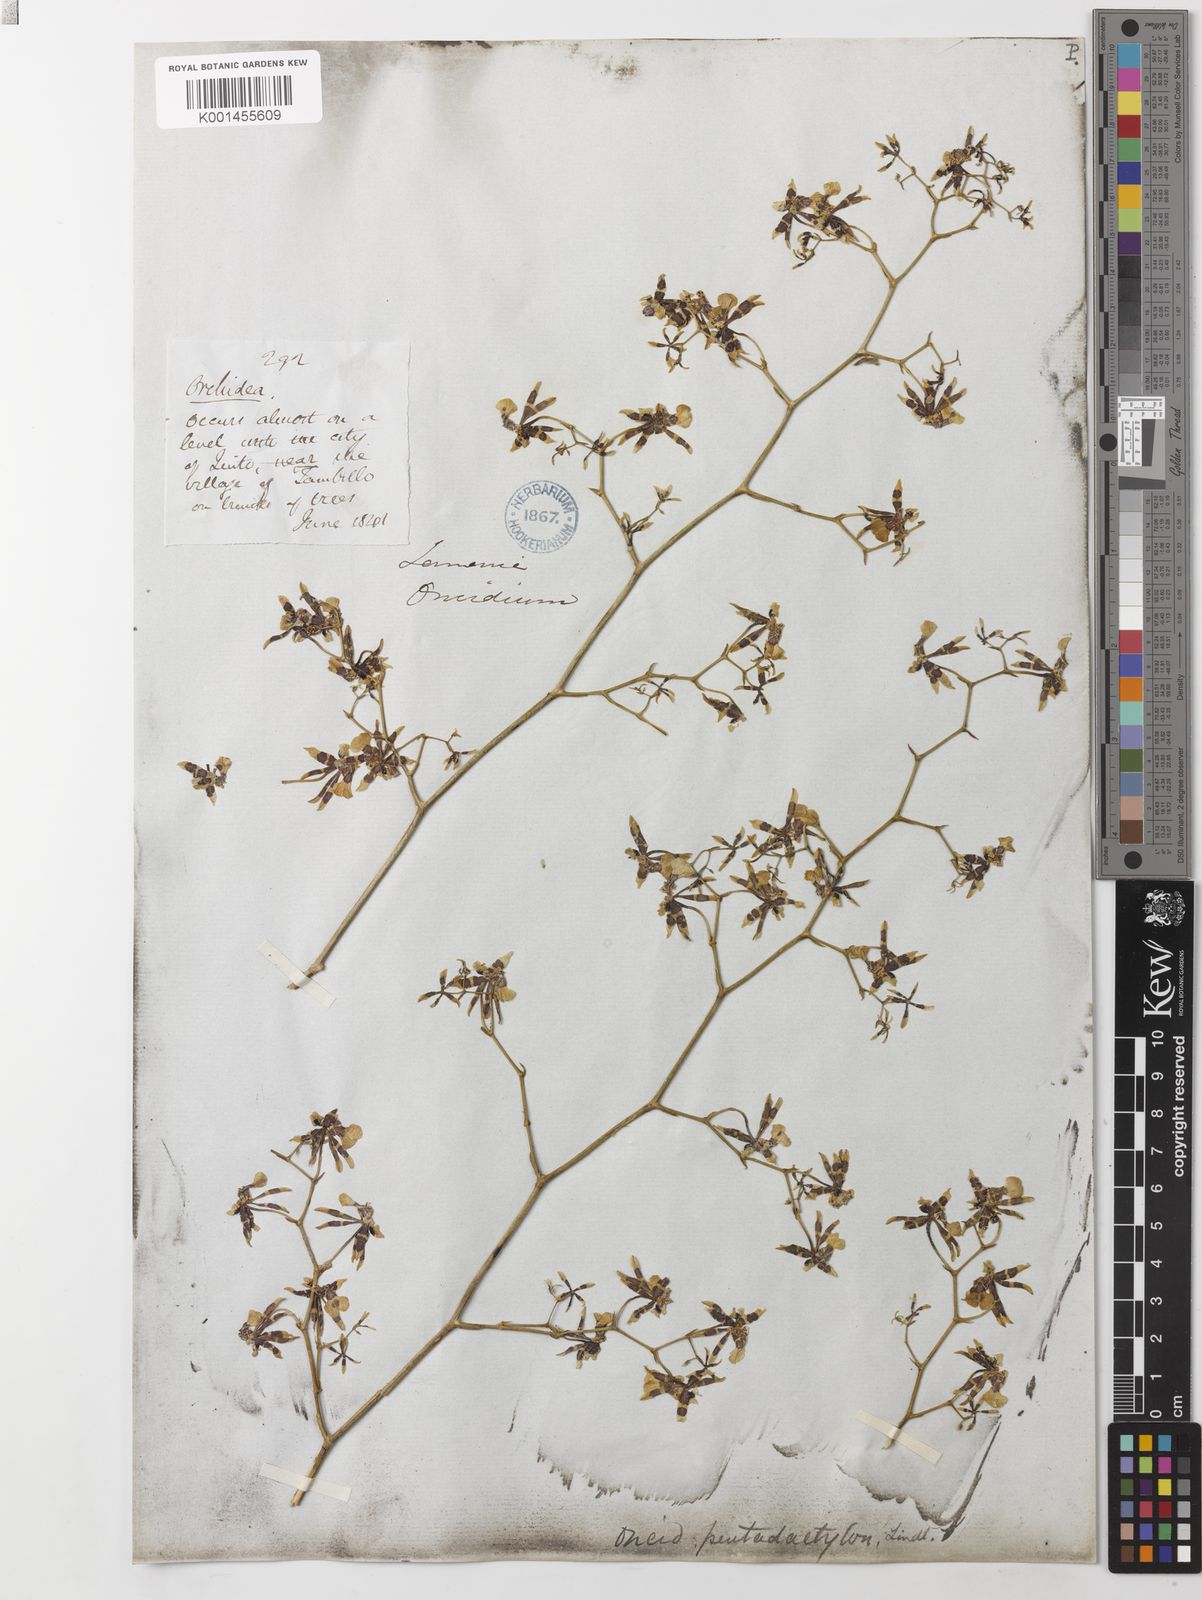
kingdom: Plantae
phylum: Tracheophyta
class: Liliopsida
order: Asparagales
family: Orchidaceae
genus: Oncidium
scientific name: Oncidium pentadactylon
